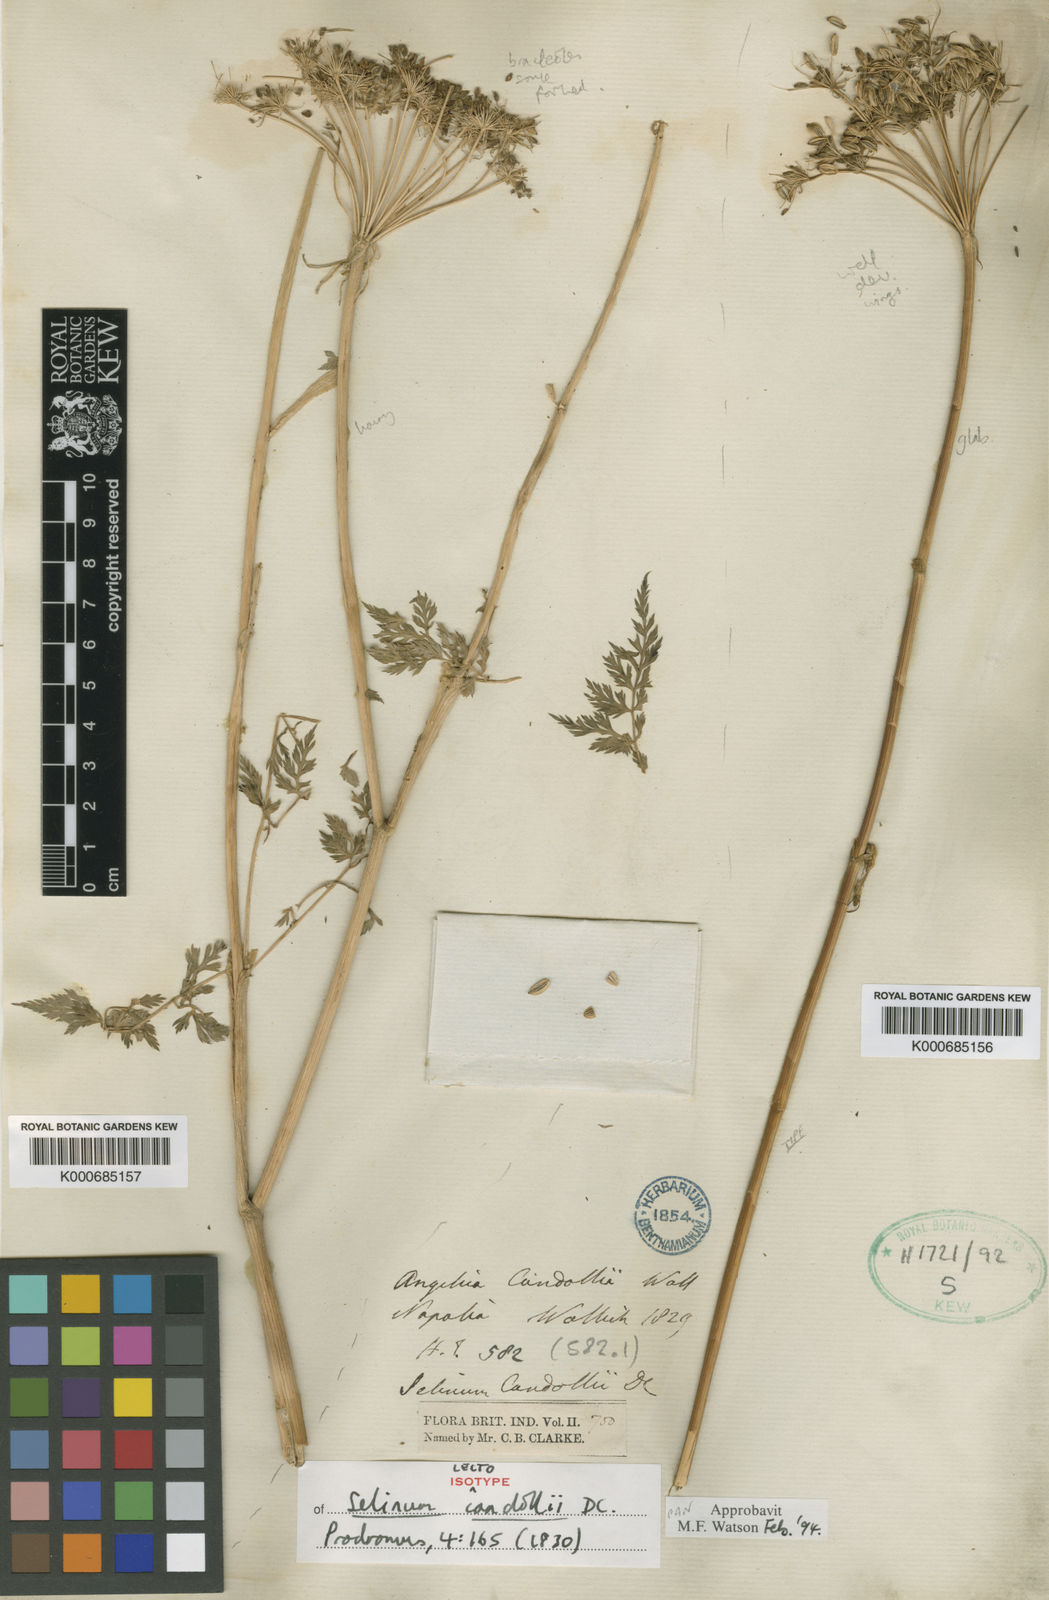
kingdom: Plantae
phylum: Tracheophyta
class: Magnoliopsida
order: Apiales
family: Apiaceae
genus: Oreocome
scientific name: Oreocome candollei
